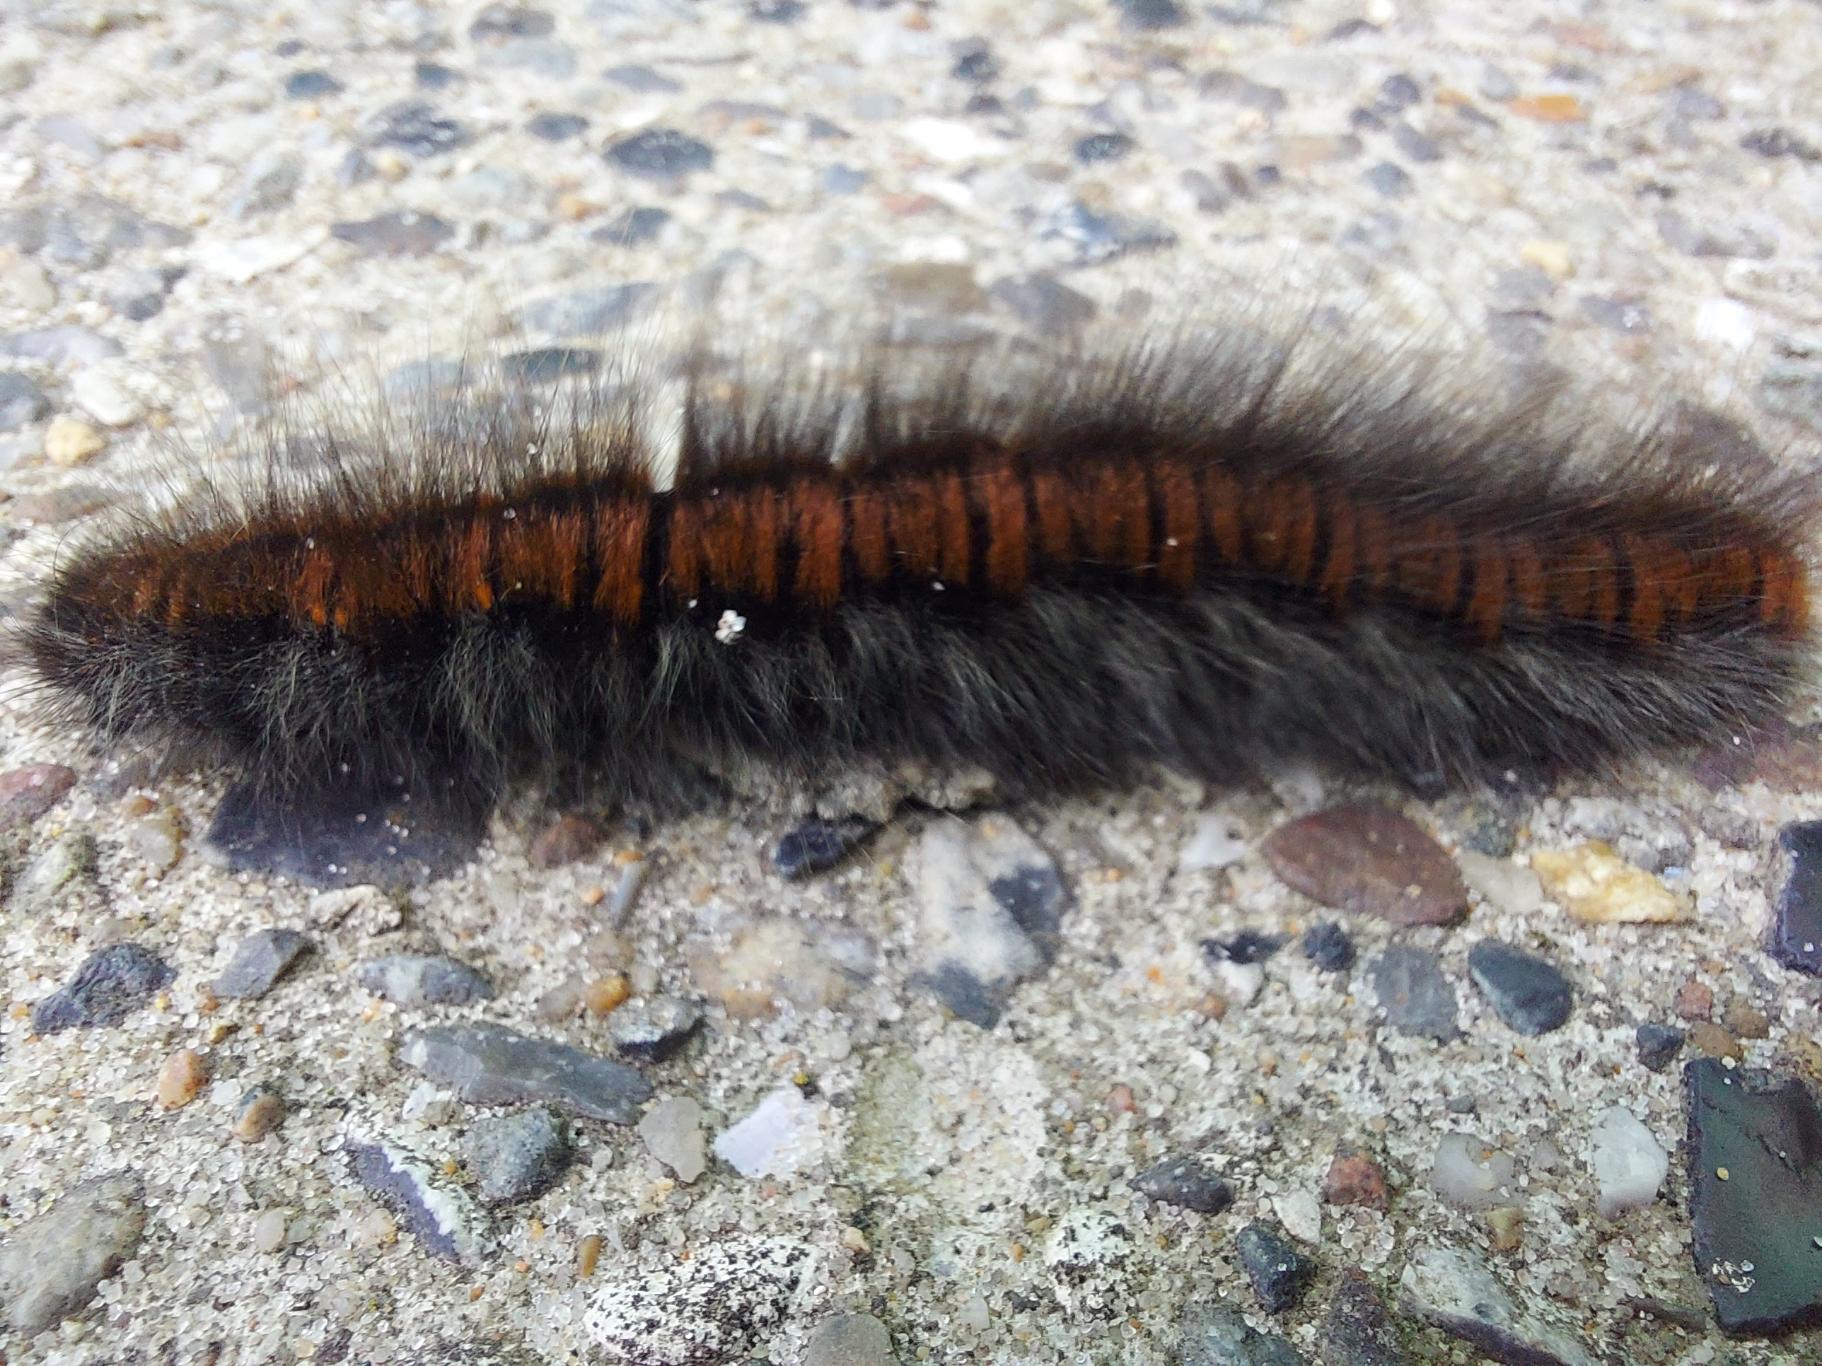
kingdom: Animalia
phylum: Arthropoda
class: Insecta
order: Lepidoptera
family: Lasiocampidae
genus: Macrothylacia
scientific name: Macrothylacia rubi
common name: Brombærspinder
